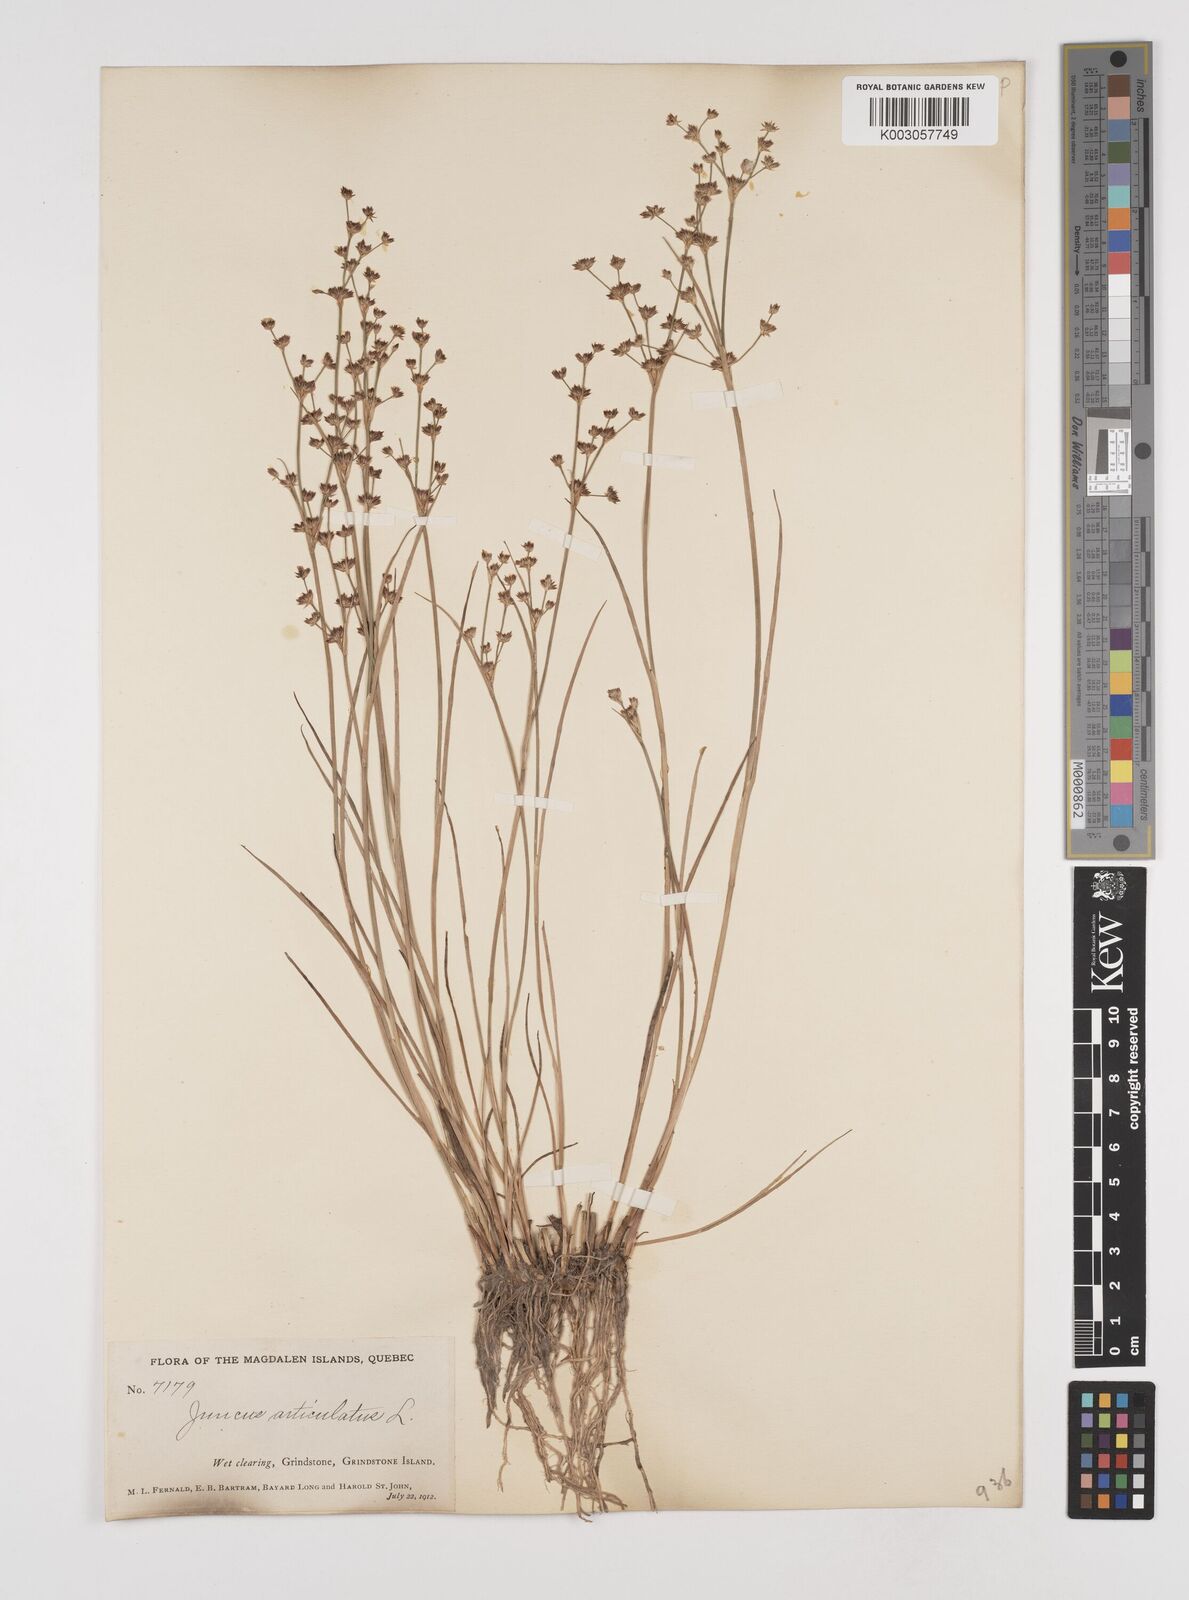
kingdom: Plantae
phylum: Tracheophyta
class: Liliopsida
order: Poales
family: Juncaceae
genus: Juncus
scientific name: Juncus articulatus
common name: Jointed rush
